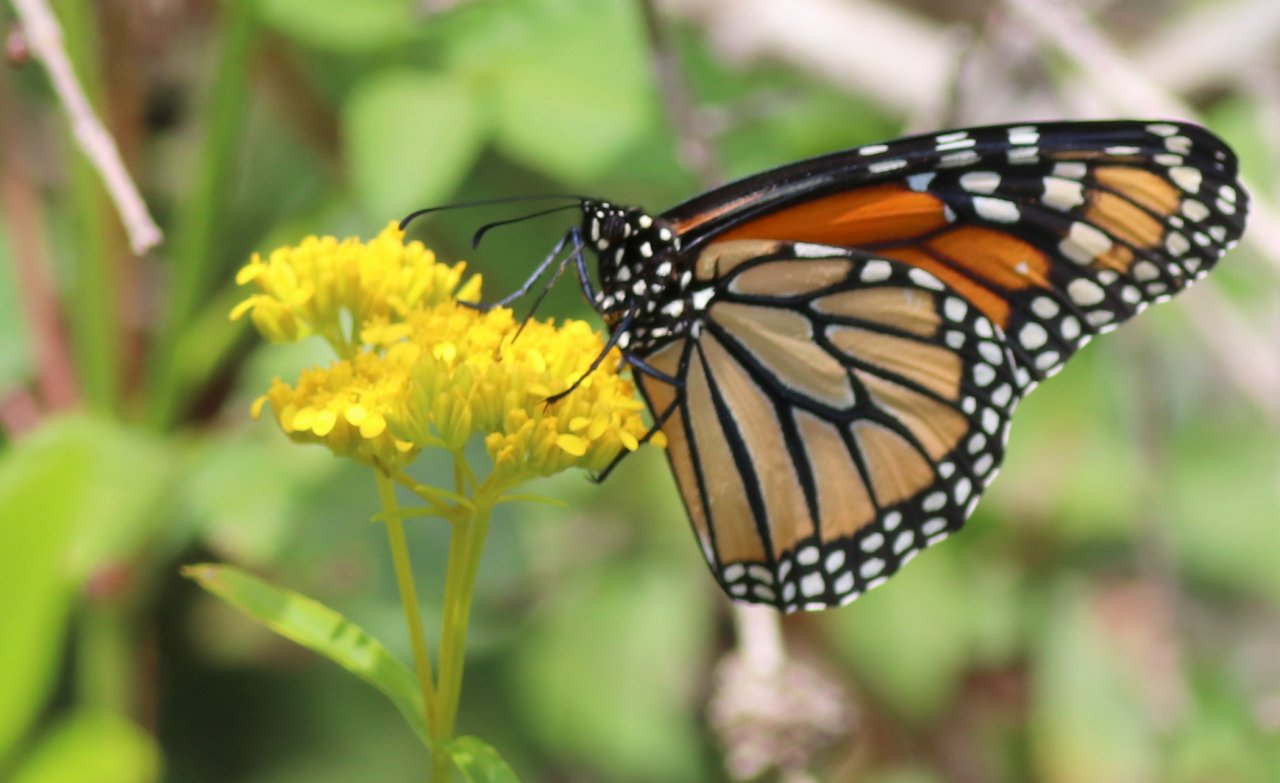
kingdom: Animalia
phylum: Arthropoda
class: Insecta
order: Lepidoptera
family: Nymphalidae
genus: Danaus
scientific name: Danaus plexippus
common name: Monarch
